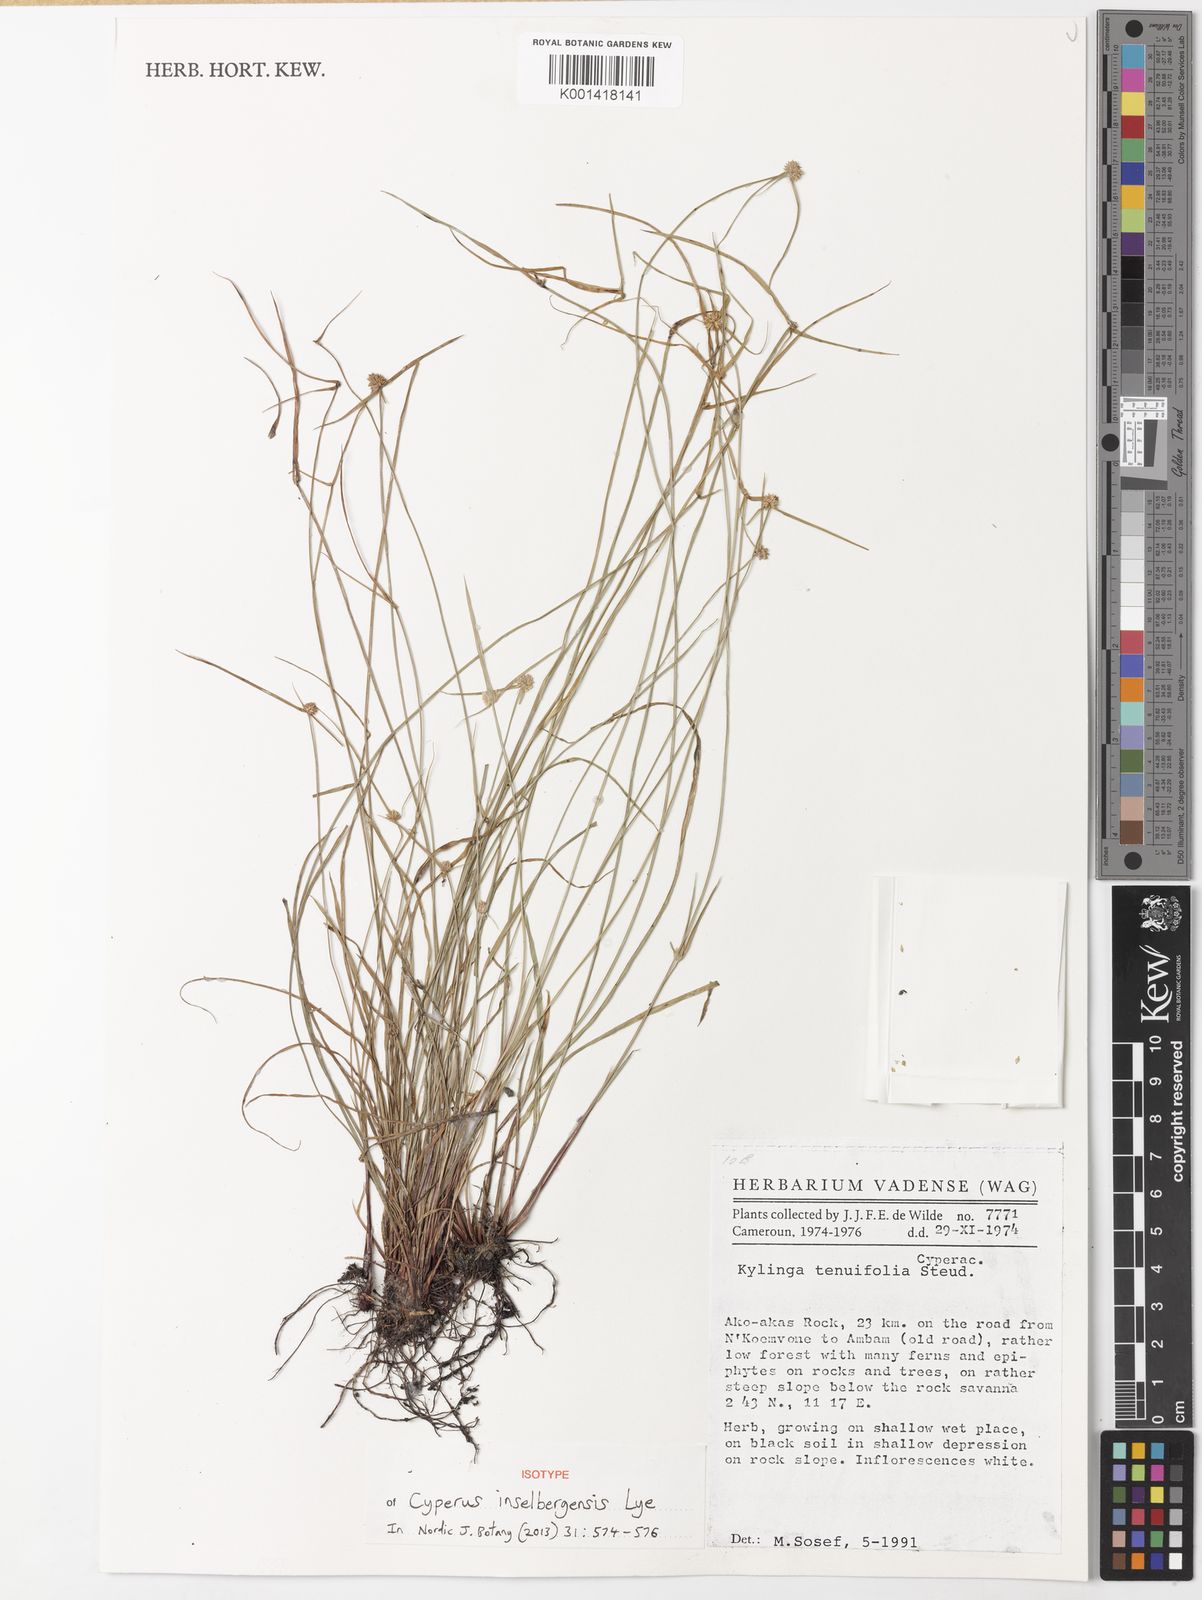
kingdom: Plantae
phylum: Tracheophyta
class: Liliopsida
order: Poales
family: Cyperaceae
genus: Cyperus
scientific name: Cyperus inselbergensis
